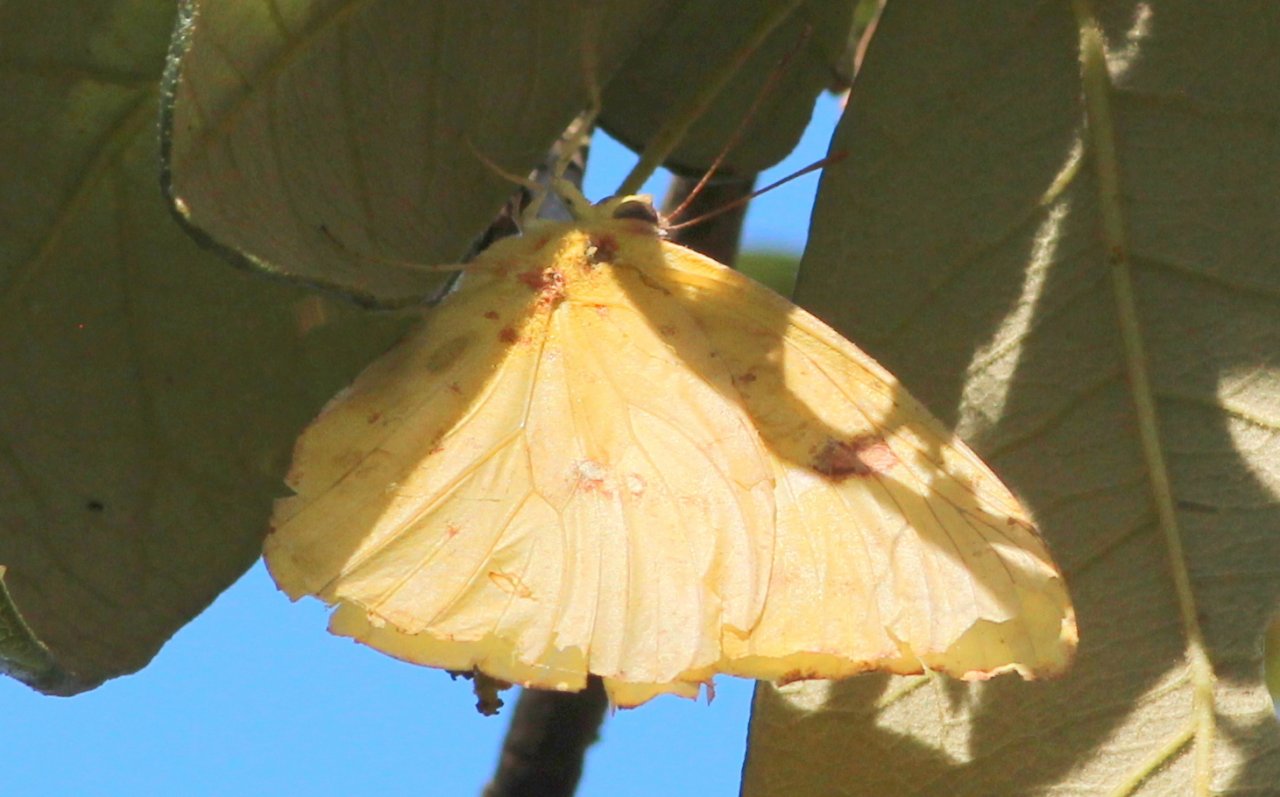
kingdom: Animalia
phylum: Arthropoda
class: Insecta
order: Lepidoptera
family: Pieridae
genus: Phoebis
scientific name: Phoebis sennae
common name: Cloudless Sulphur
